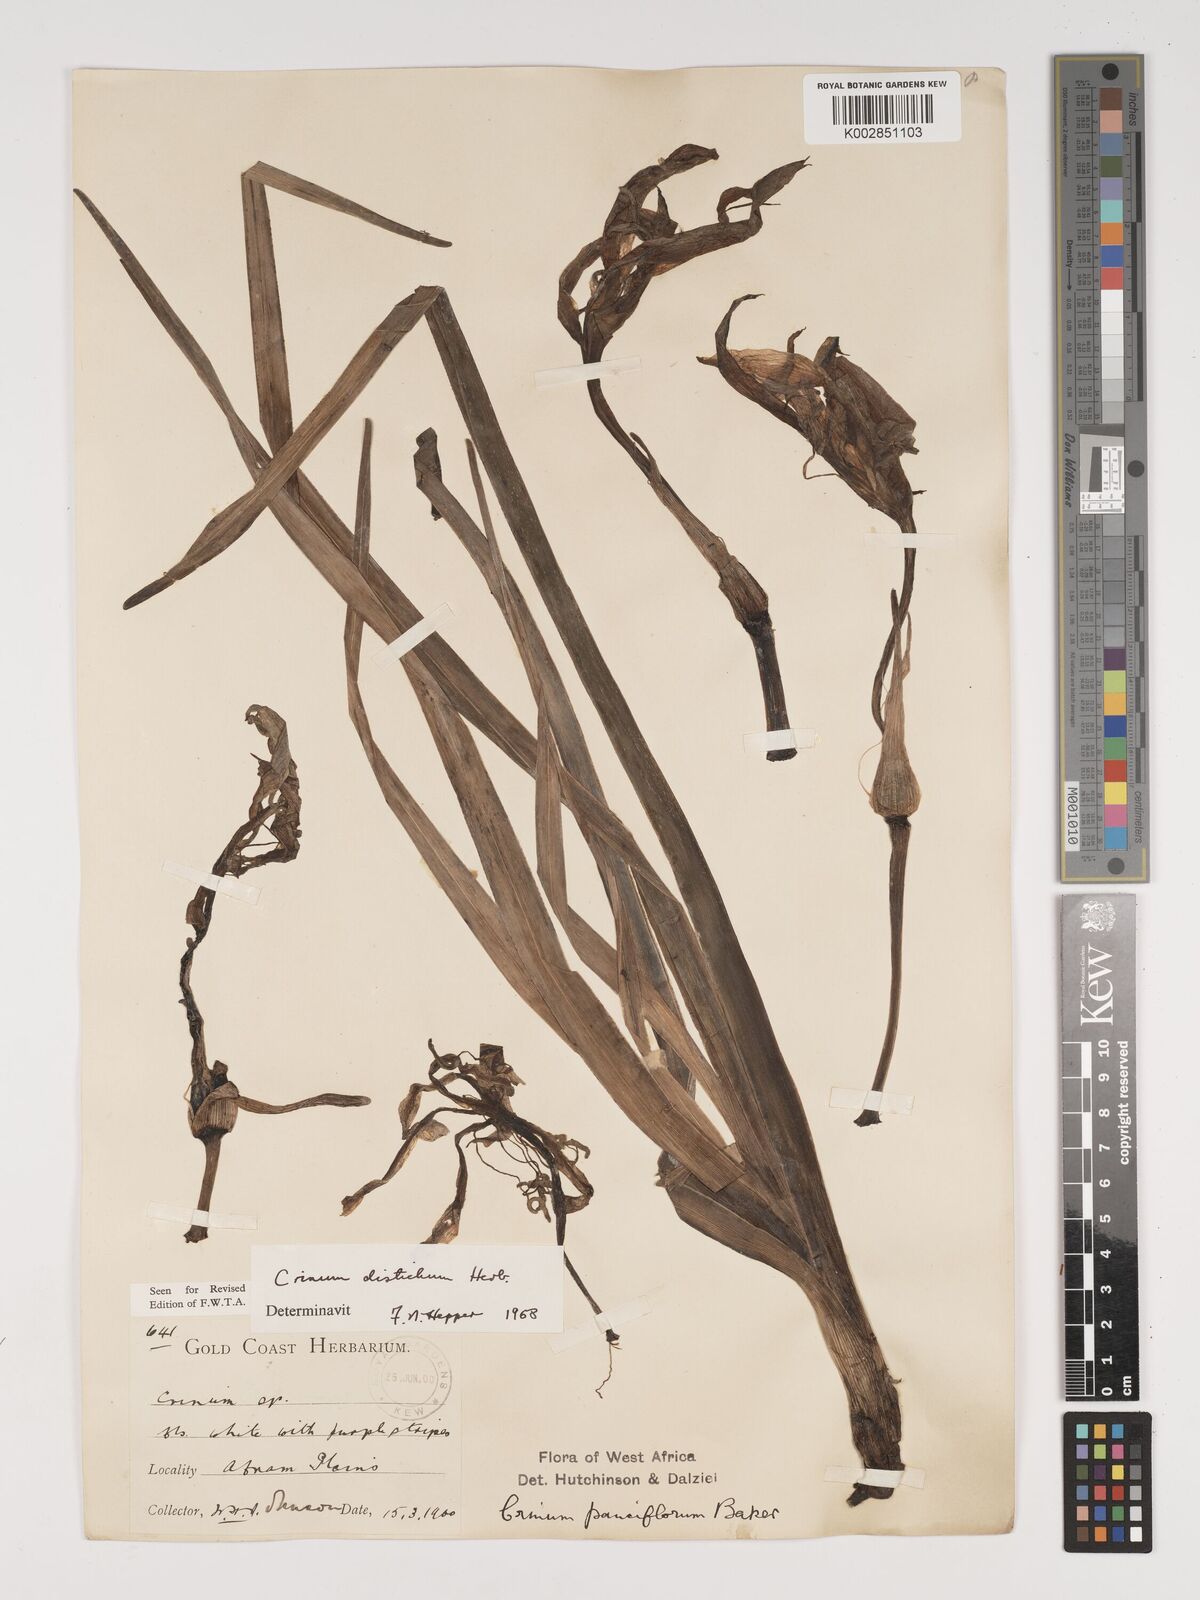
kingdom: Plantae
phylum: Tracheophyta
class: Liliopsida
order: Asparagales
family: Amaryllidaceae
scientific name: Amaryllidaceae
